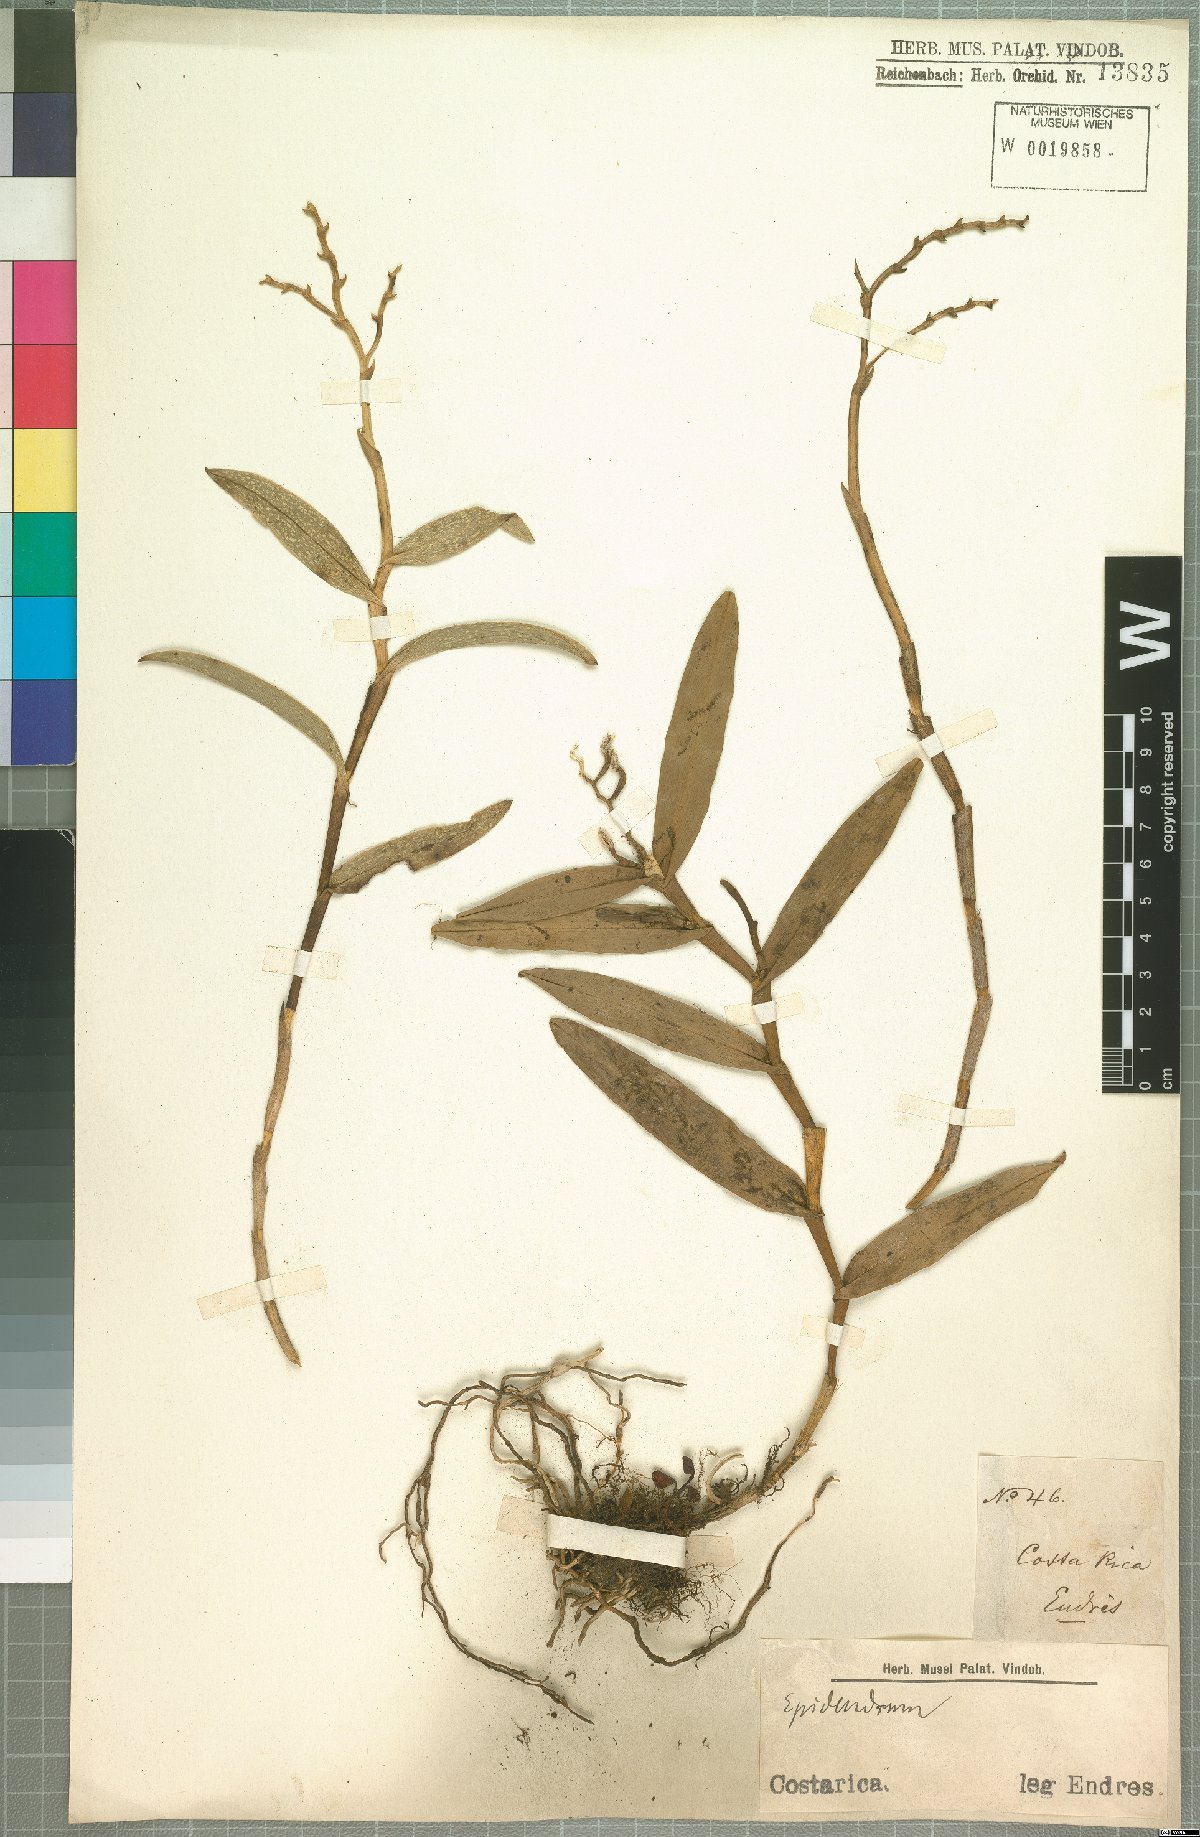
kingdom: Plantae
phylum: Tracheophyta
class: Liliopsida
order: Asparagales
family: Orchidaceae
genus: Epidendrum
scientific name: Epidendrum
